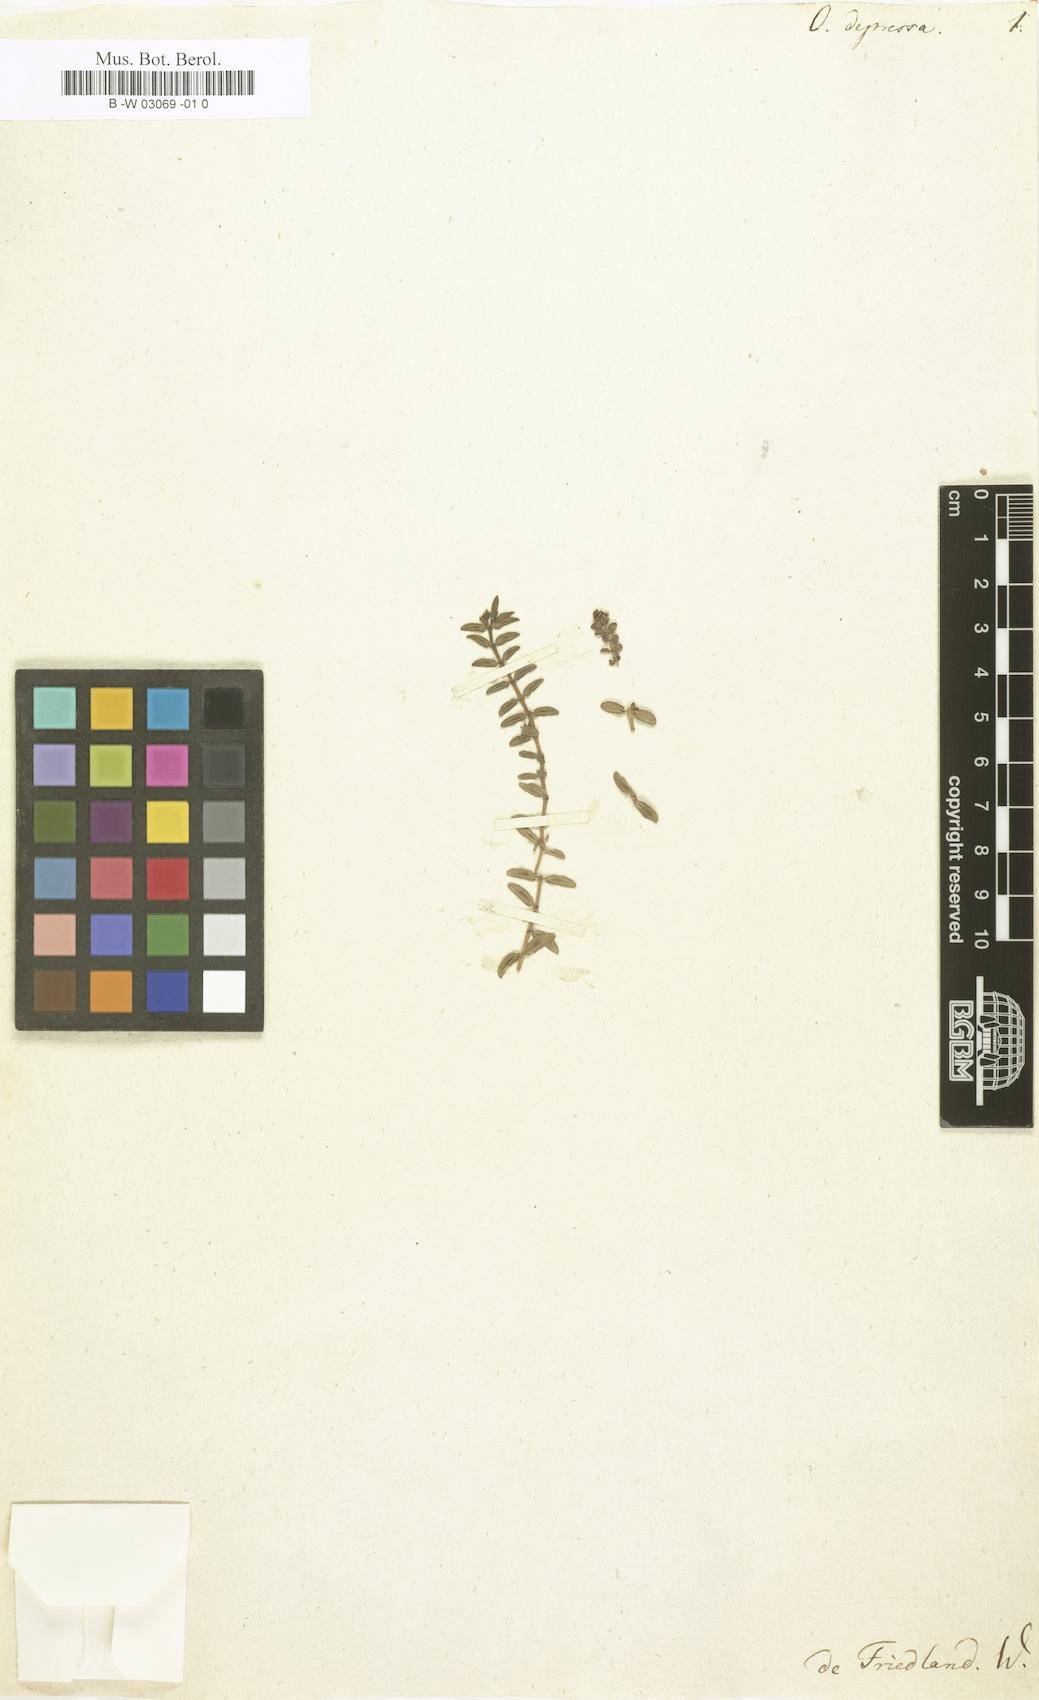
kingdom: Plantae
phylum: Tracheophyta
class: Magnoliopsida
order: Gentianales
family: Rubiaceae
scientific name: Rubiaceae
